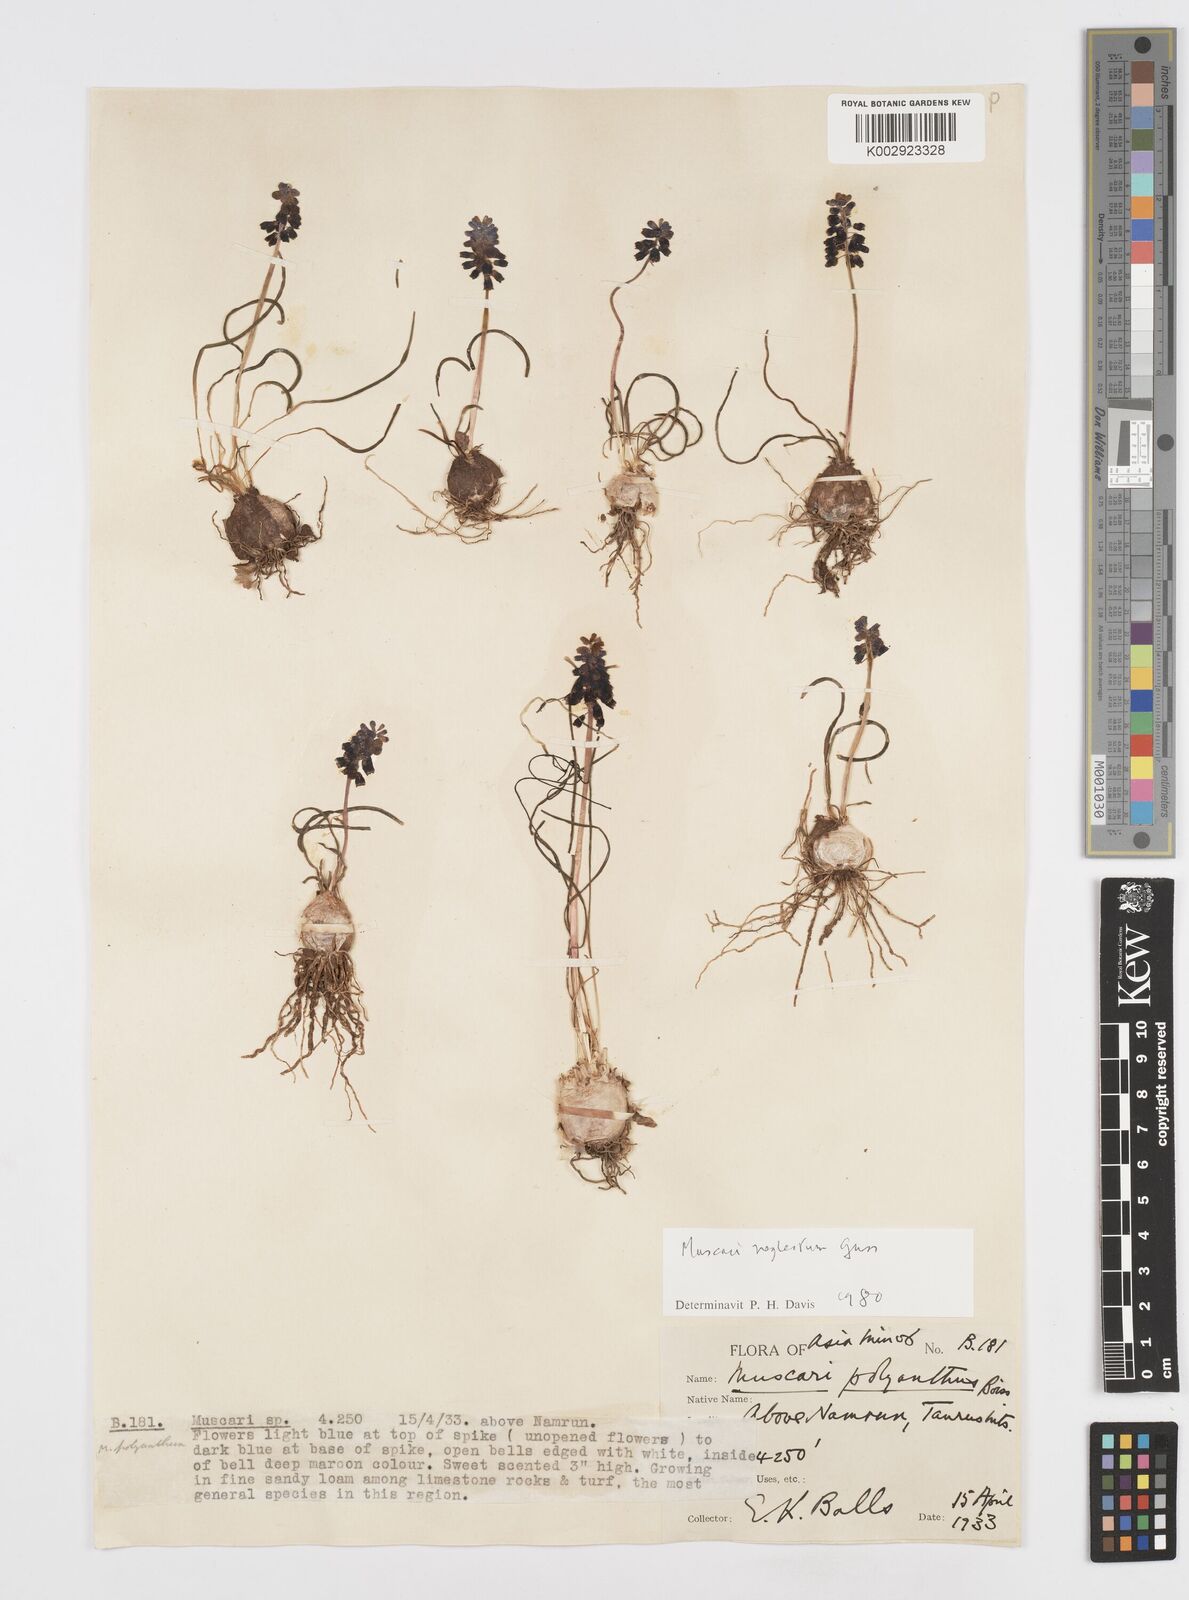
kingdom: Plantae
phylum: Tracheophyta
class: Liliopsida
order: Asparagales
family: Asparagaceae
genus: Muscari
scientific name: Muscari neglectum
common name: Grape-hyacinth
